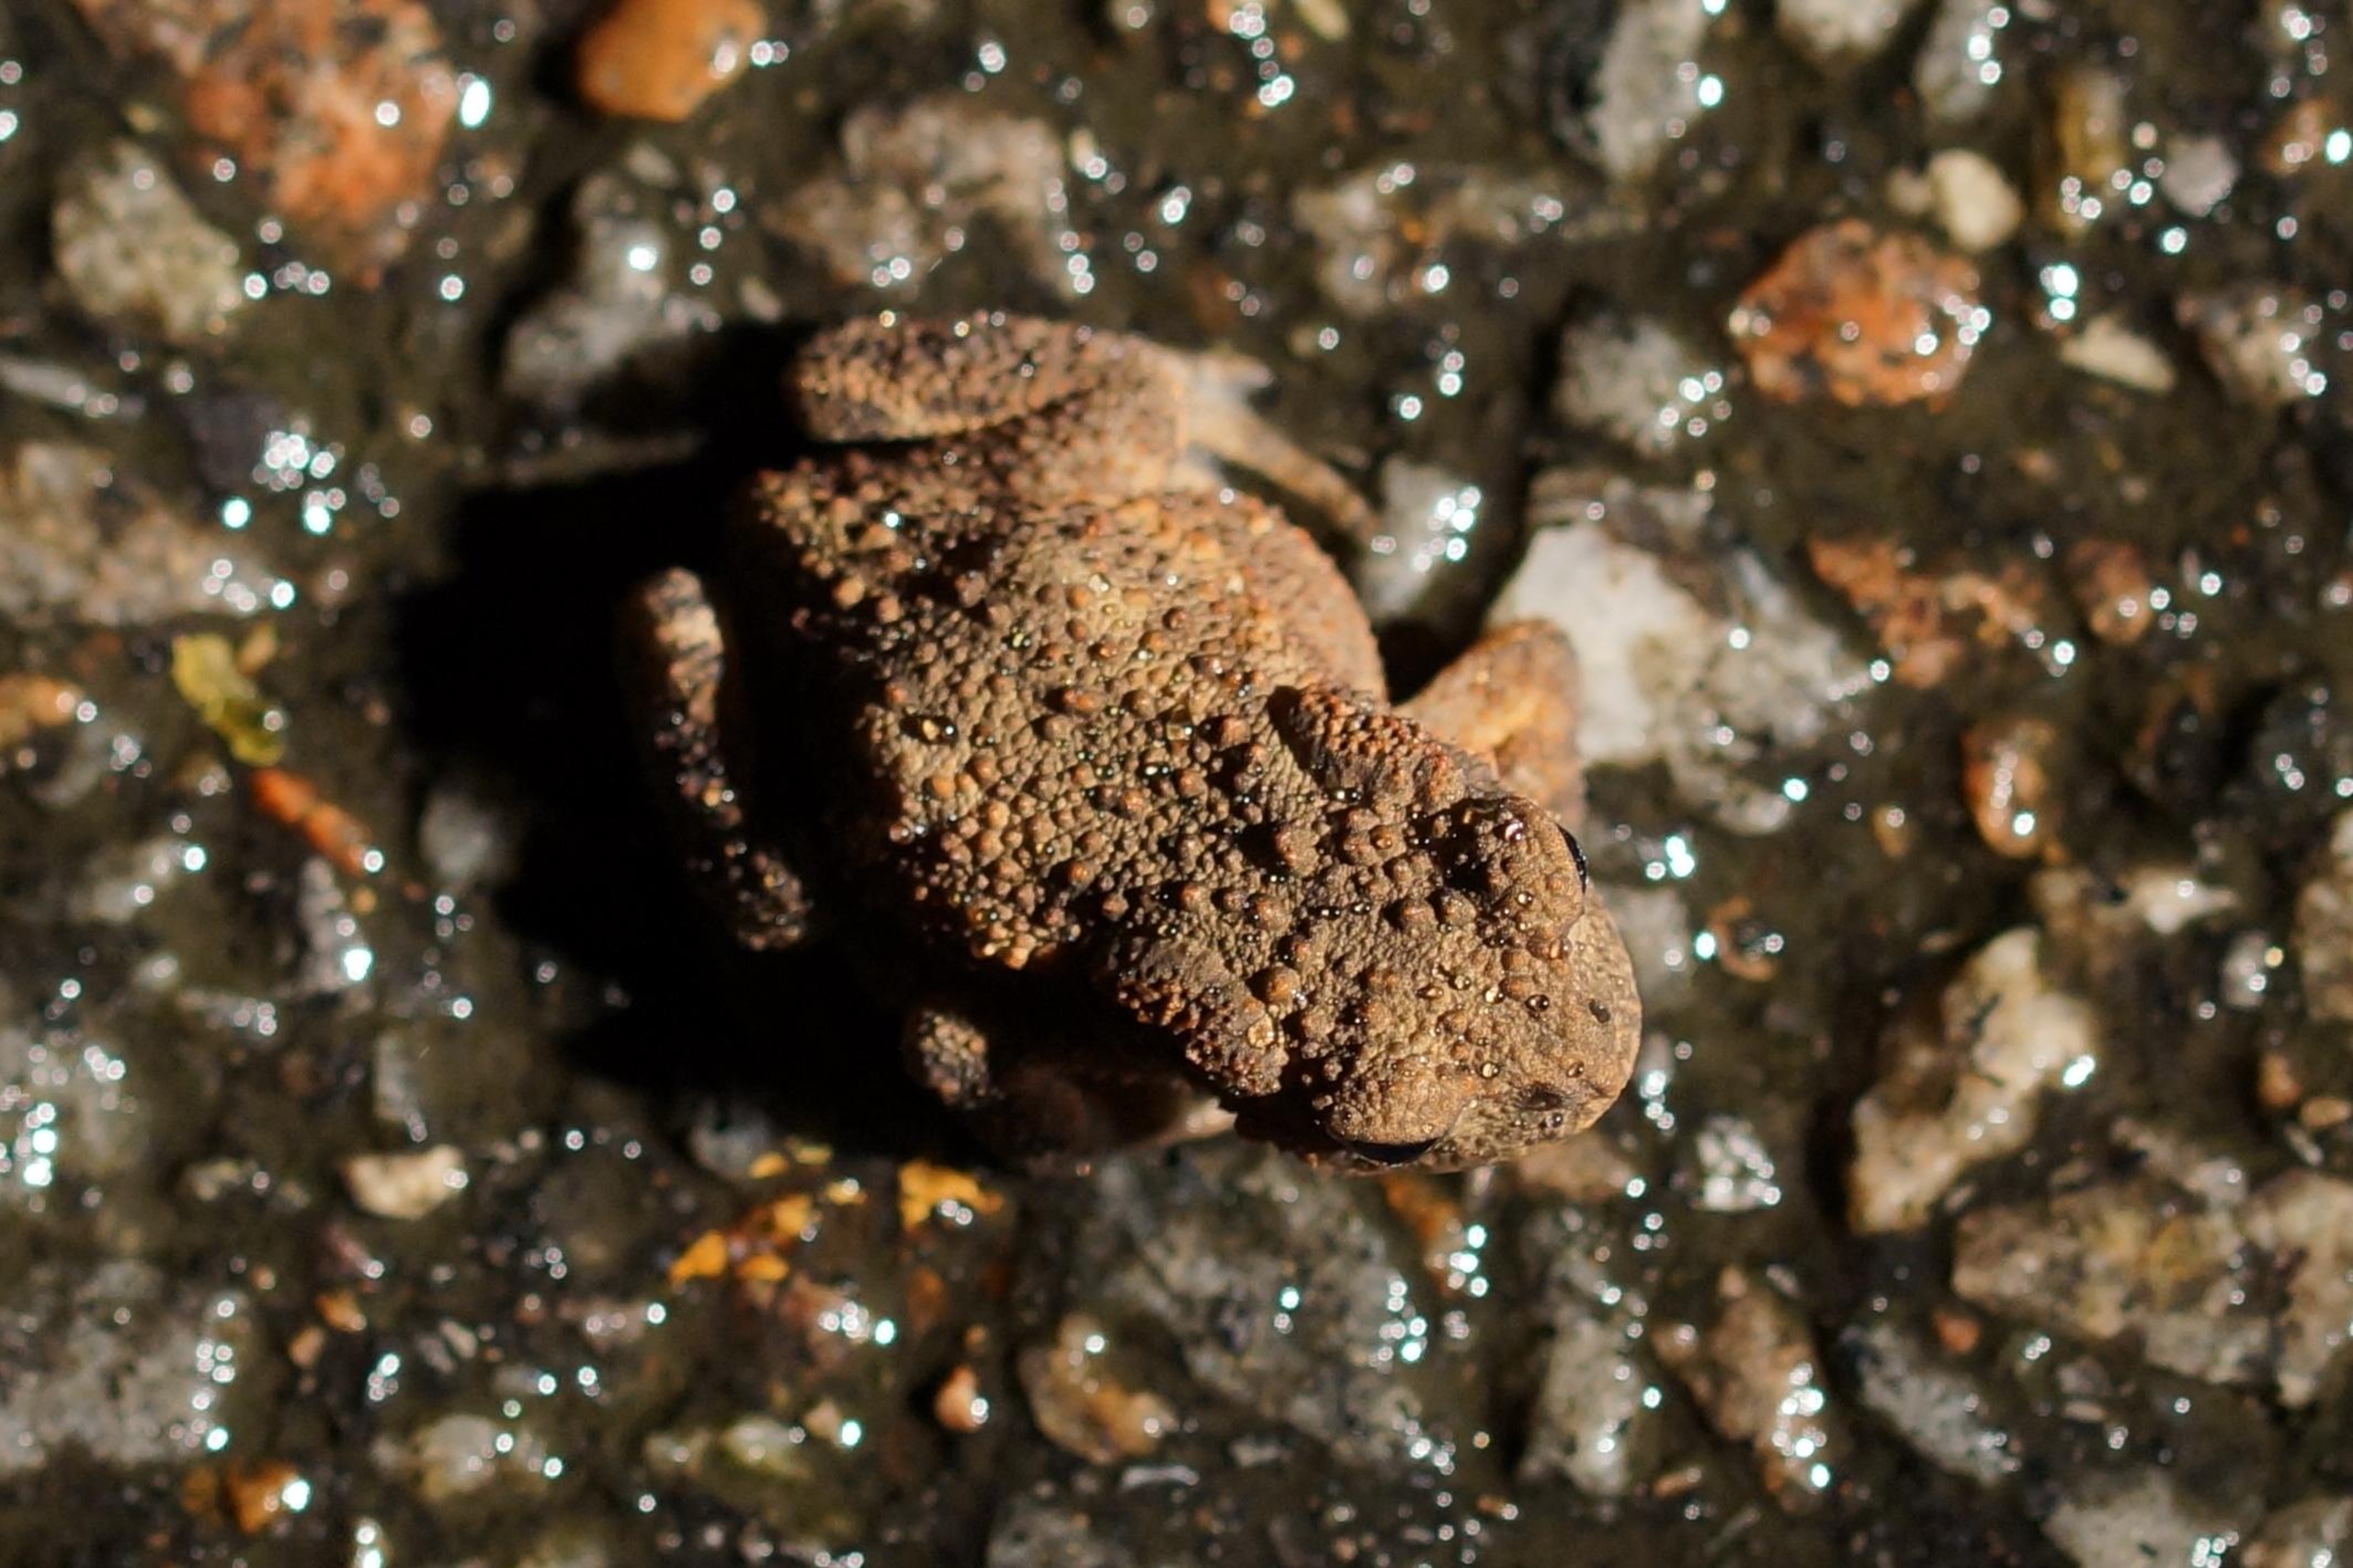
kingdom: Animalia
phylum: Chordata
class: Amphibia
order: Anura
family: Bufonidae
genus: Bufo
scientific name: Bufo bufo
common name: Skrubtudse
